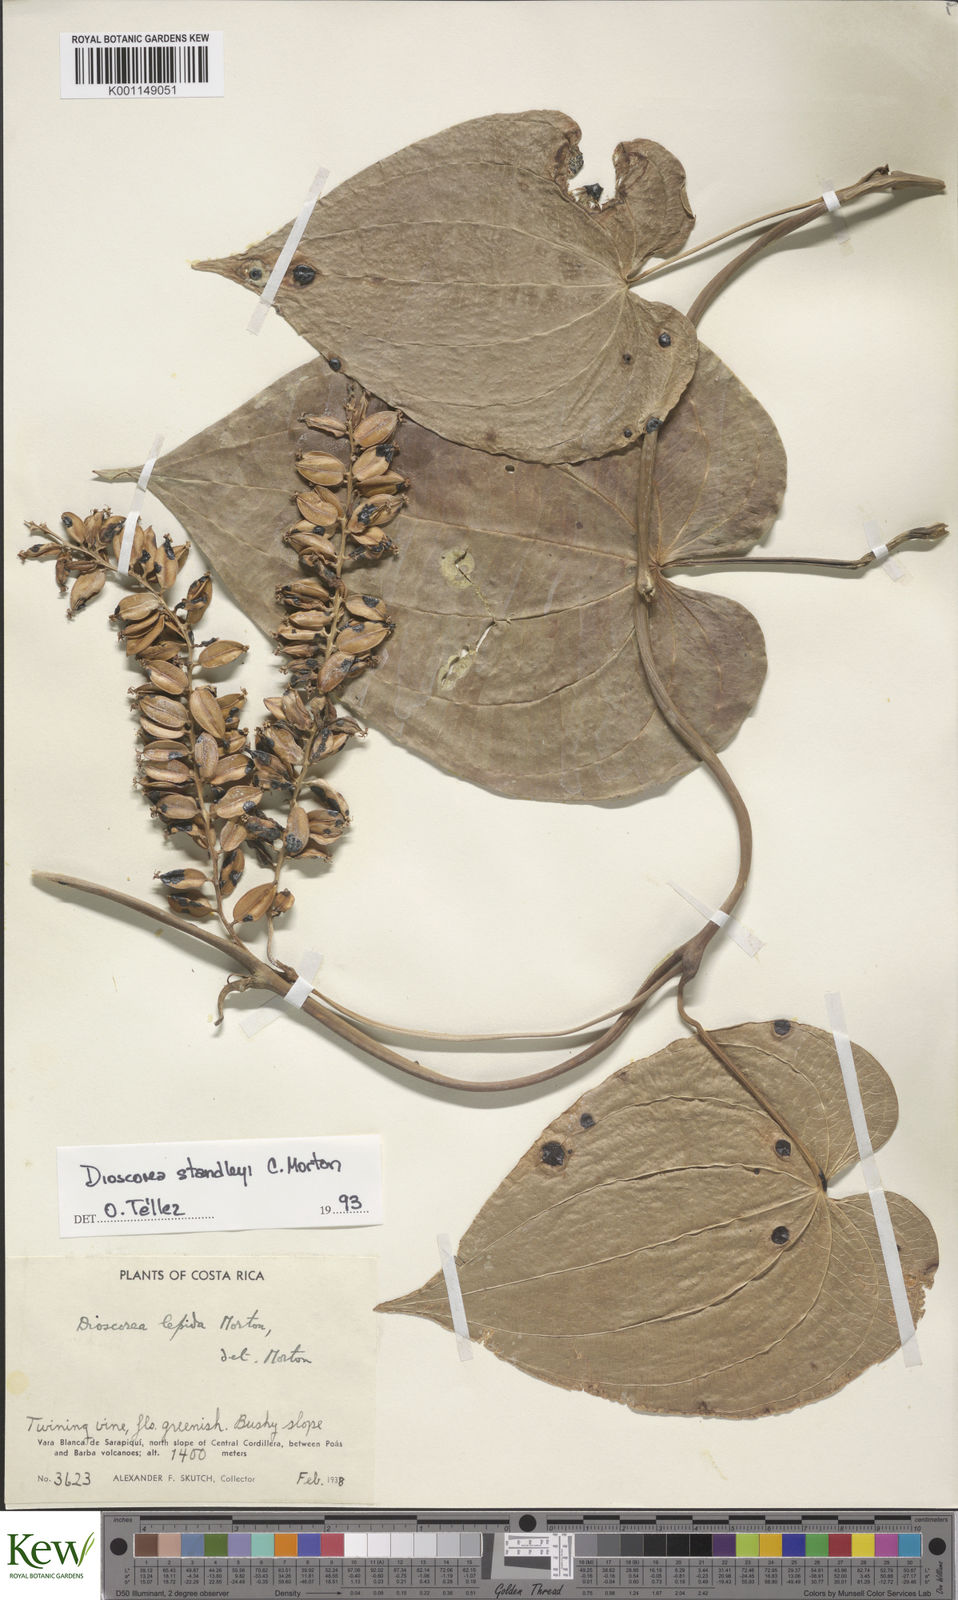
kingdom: Plantae
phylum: Tracheophyta
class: Liliopsida
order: Dioscoreales
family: Dioscoreaceae
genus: Dioscorea
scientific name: Dioscorea standleyi
